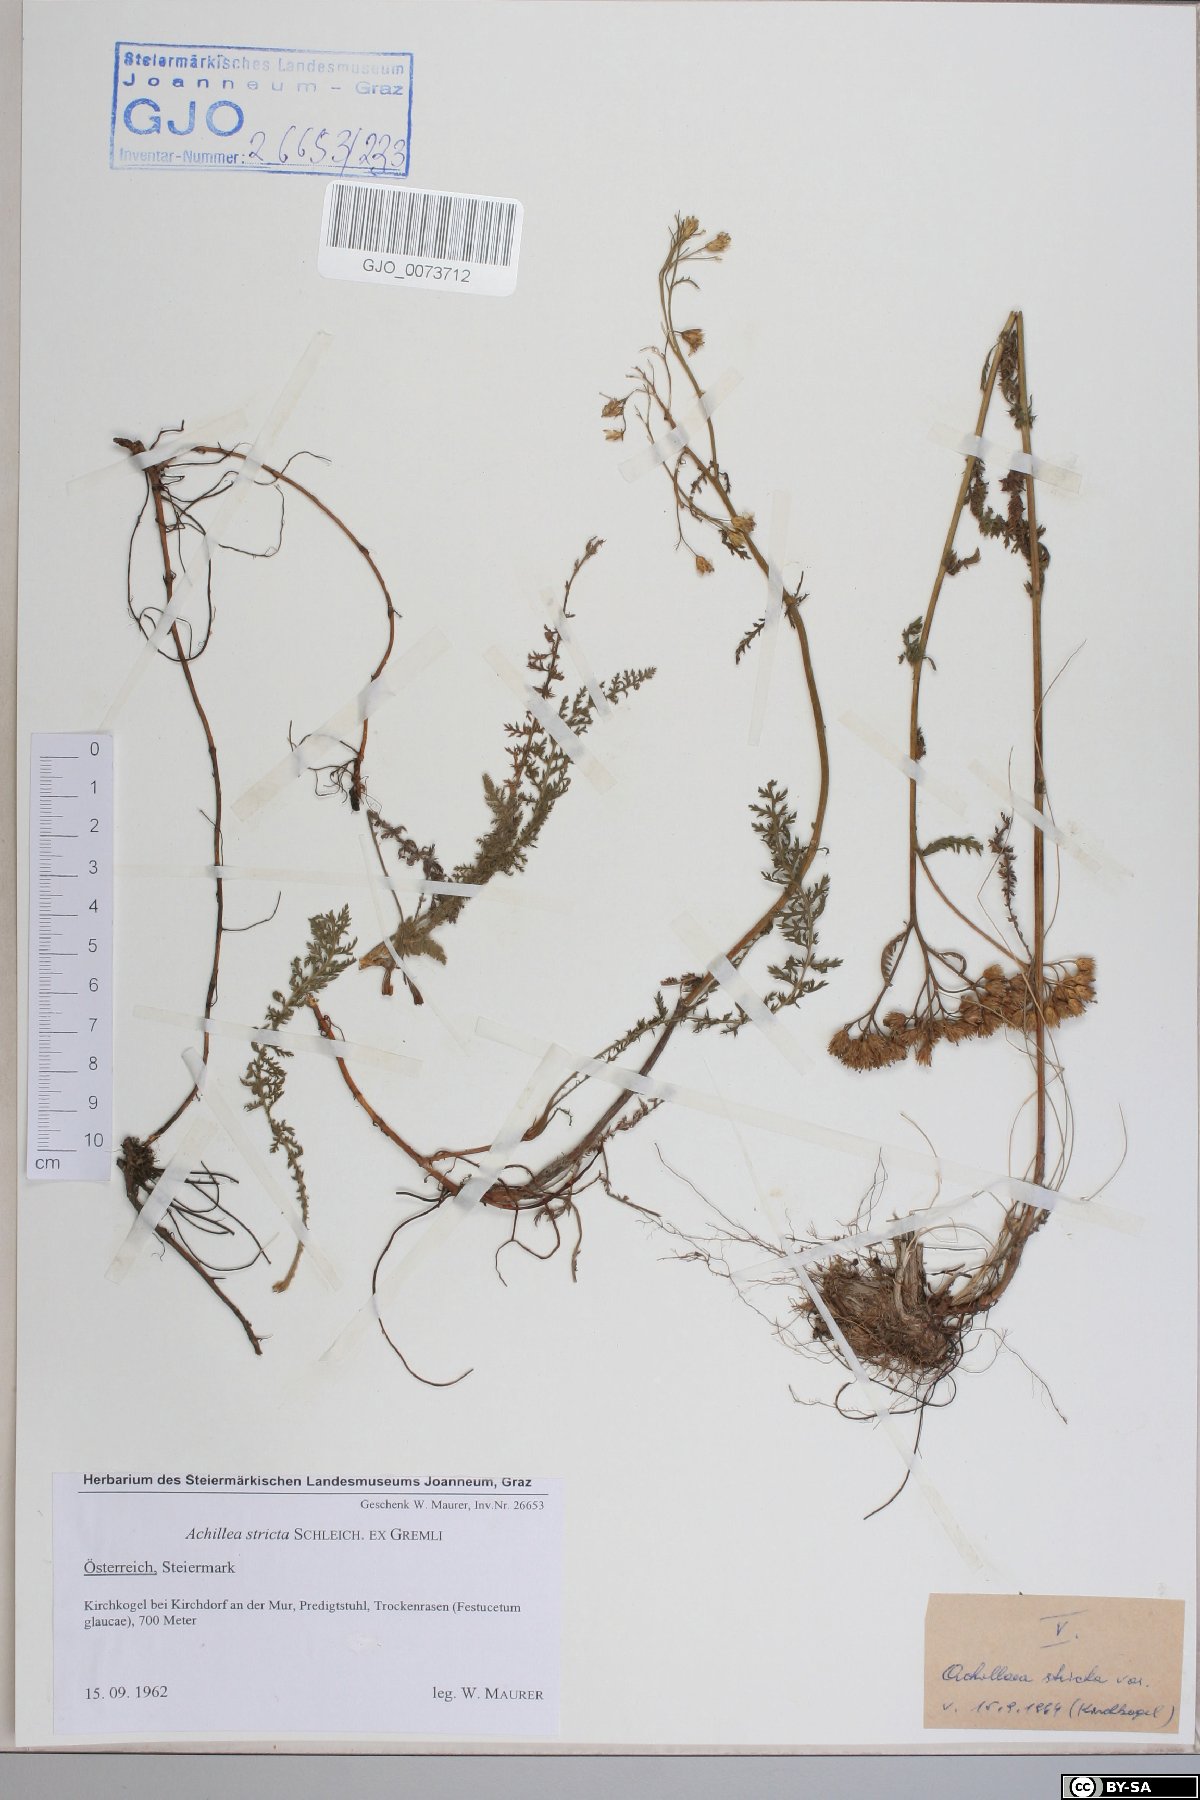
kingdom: Plantae
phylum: Tracheophyta
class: Magnoliopsida
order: Asterales
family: Asteraceae
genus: Achillea
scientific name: Achillea distans
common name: Tall yarrow
